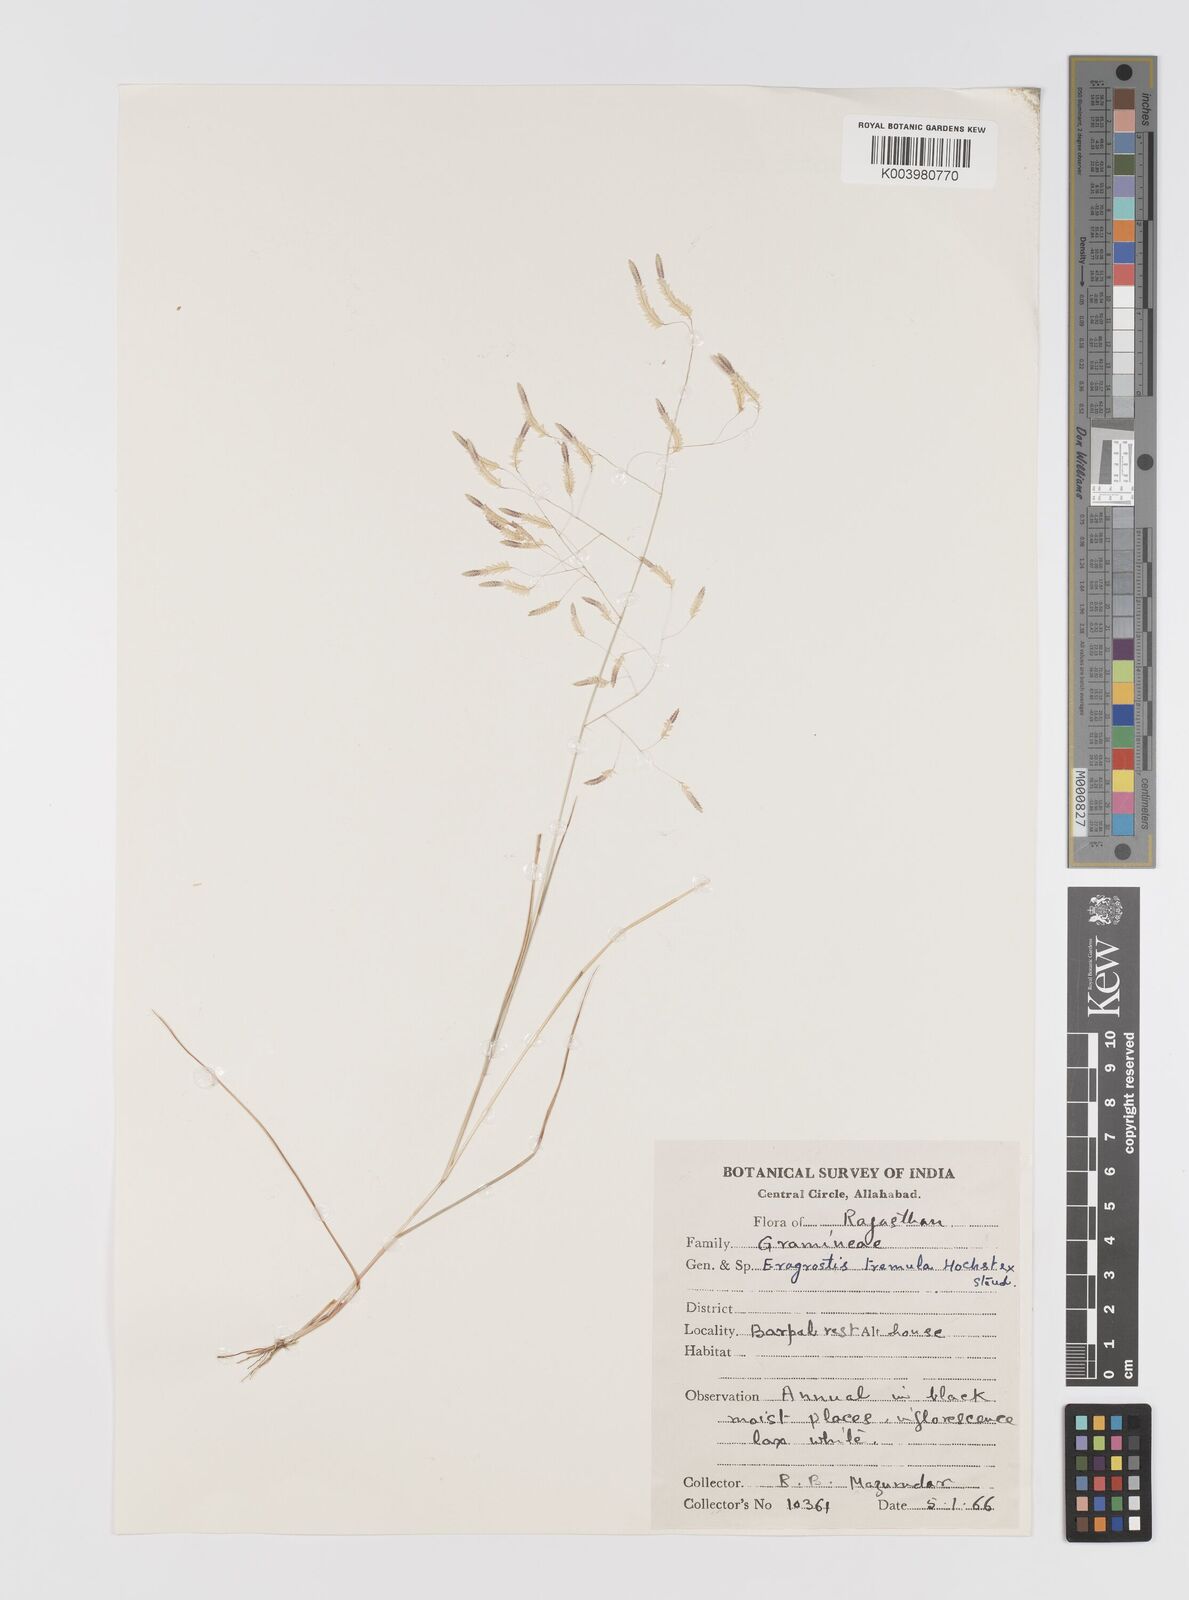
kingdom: Plantae
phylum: Tracheophyta
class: Liliopsida
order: Poales
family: Poaceae
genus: Eragrostis
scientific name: Eragrostis tremula
